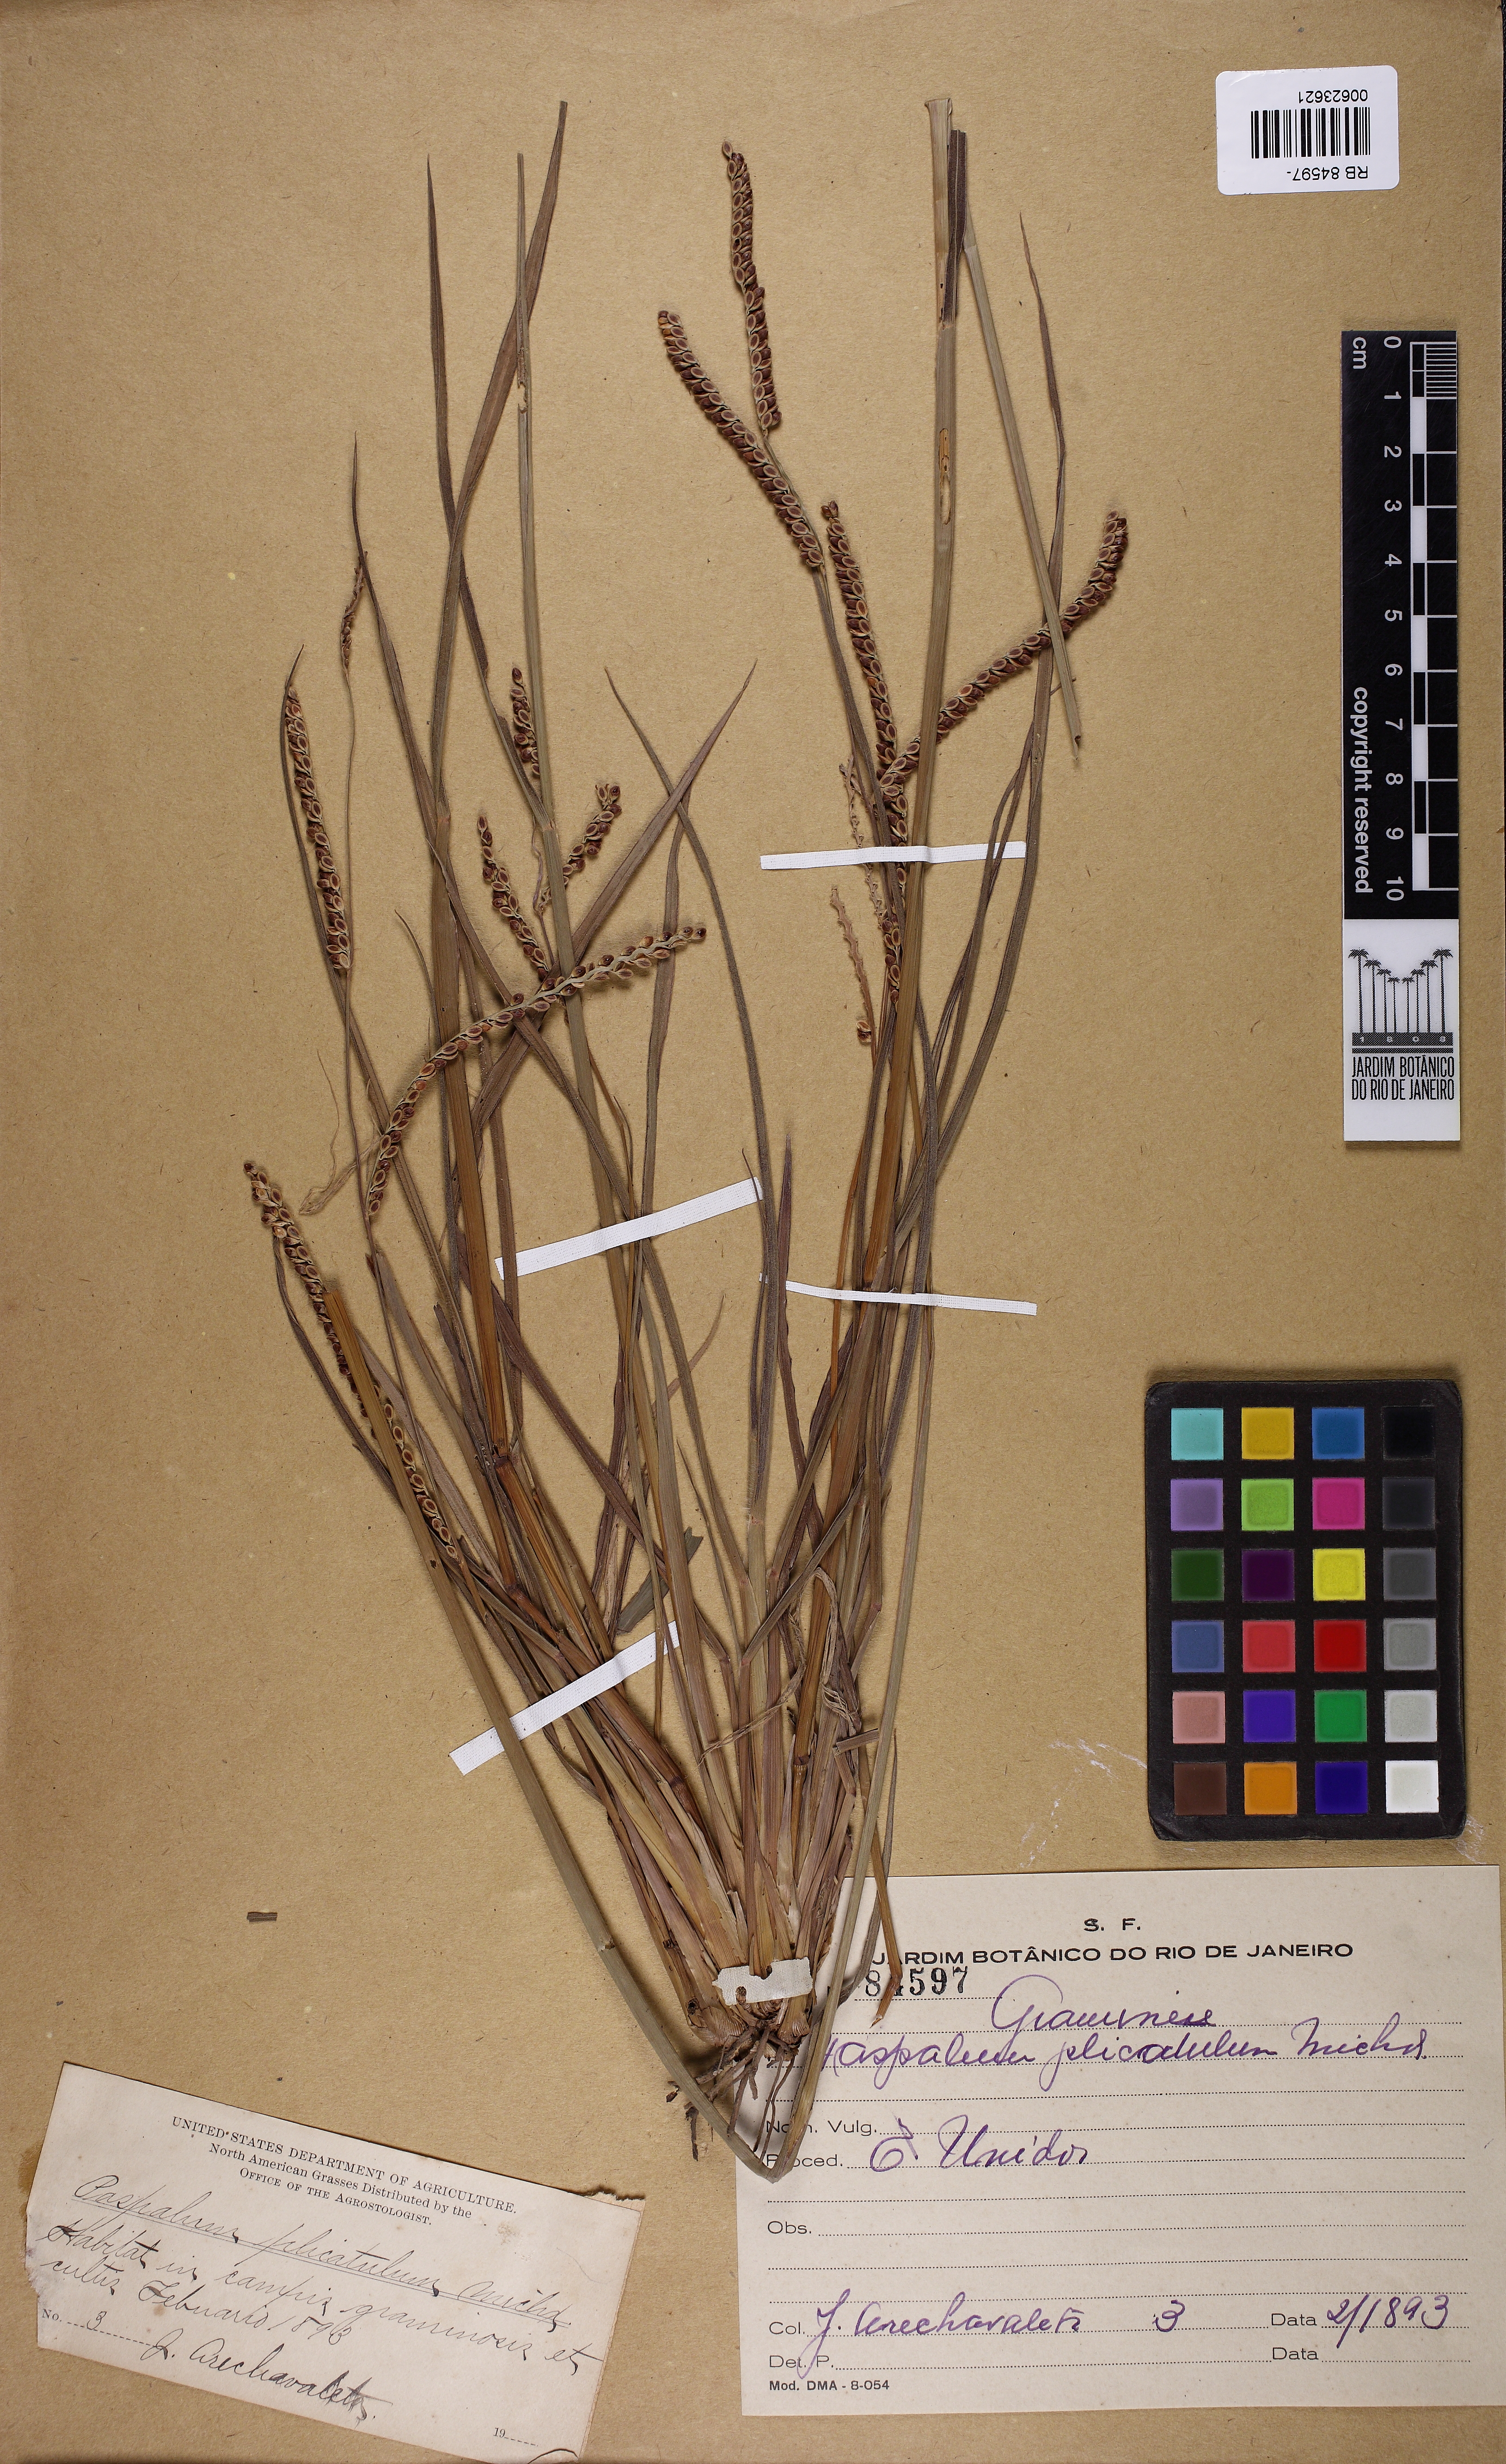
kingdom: Plantae
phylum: Tracheophyta
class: Liliopsida
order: Poales
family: Poaceae
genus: Paspalum
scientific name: Paspalum plicatulum
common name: Top paspalum
